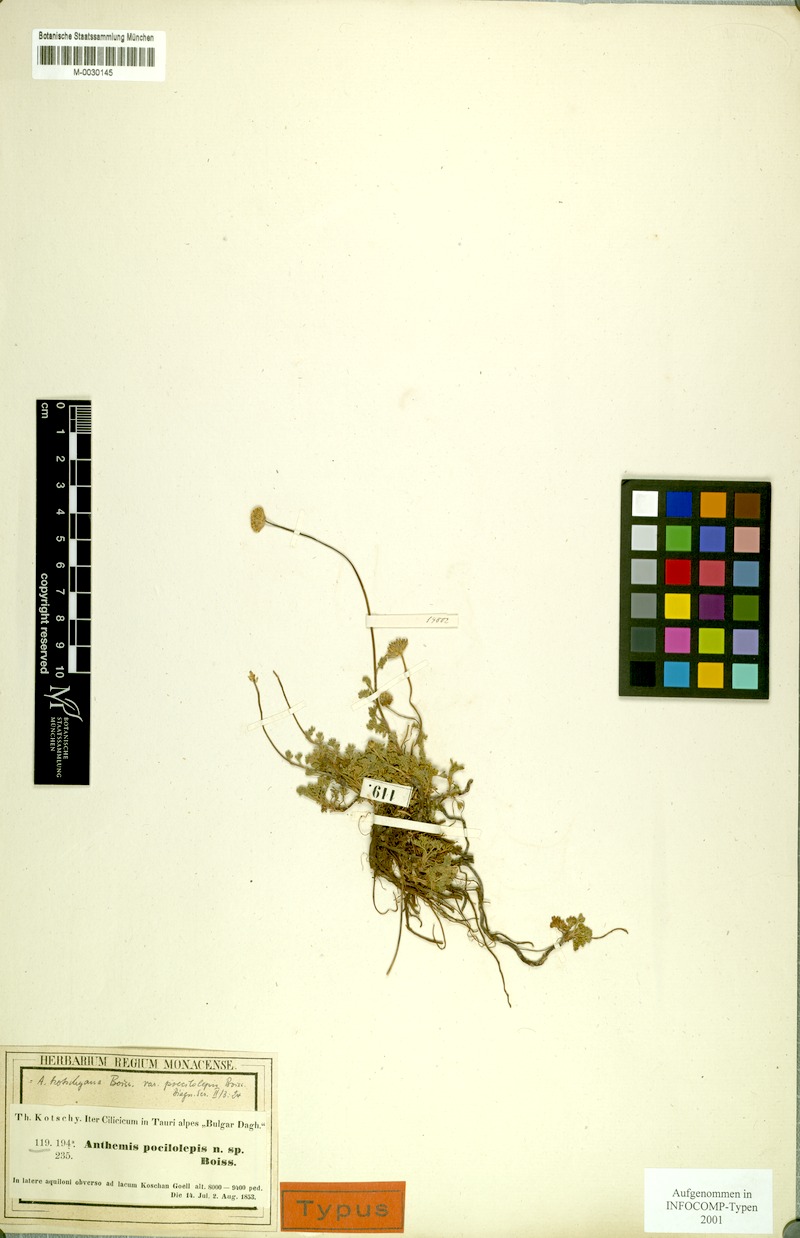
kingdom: Plantae
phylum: Tracheophyta
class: Magnoliopsida
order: Asterales
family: Asteraceae
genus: Anthemis
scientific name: Anthemis kotschyana
